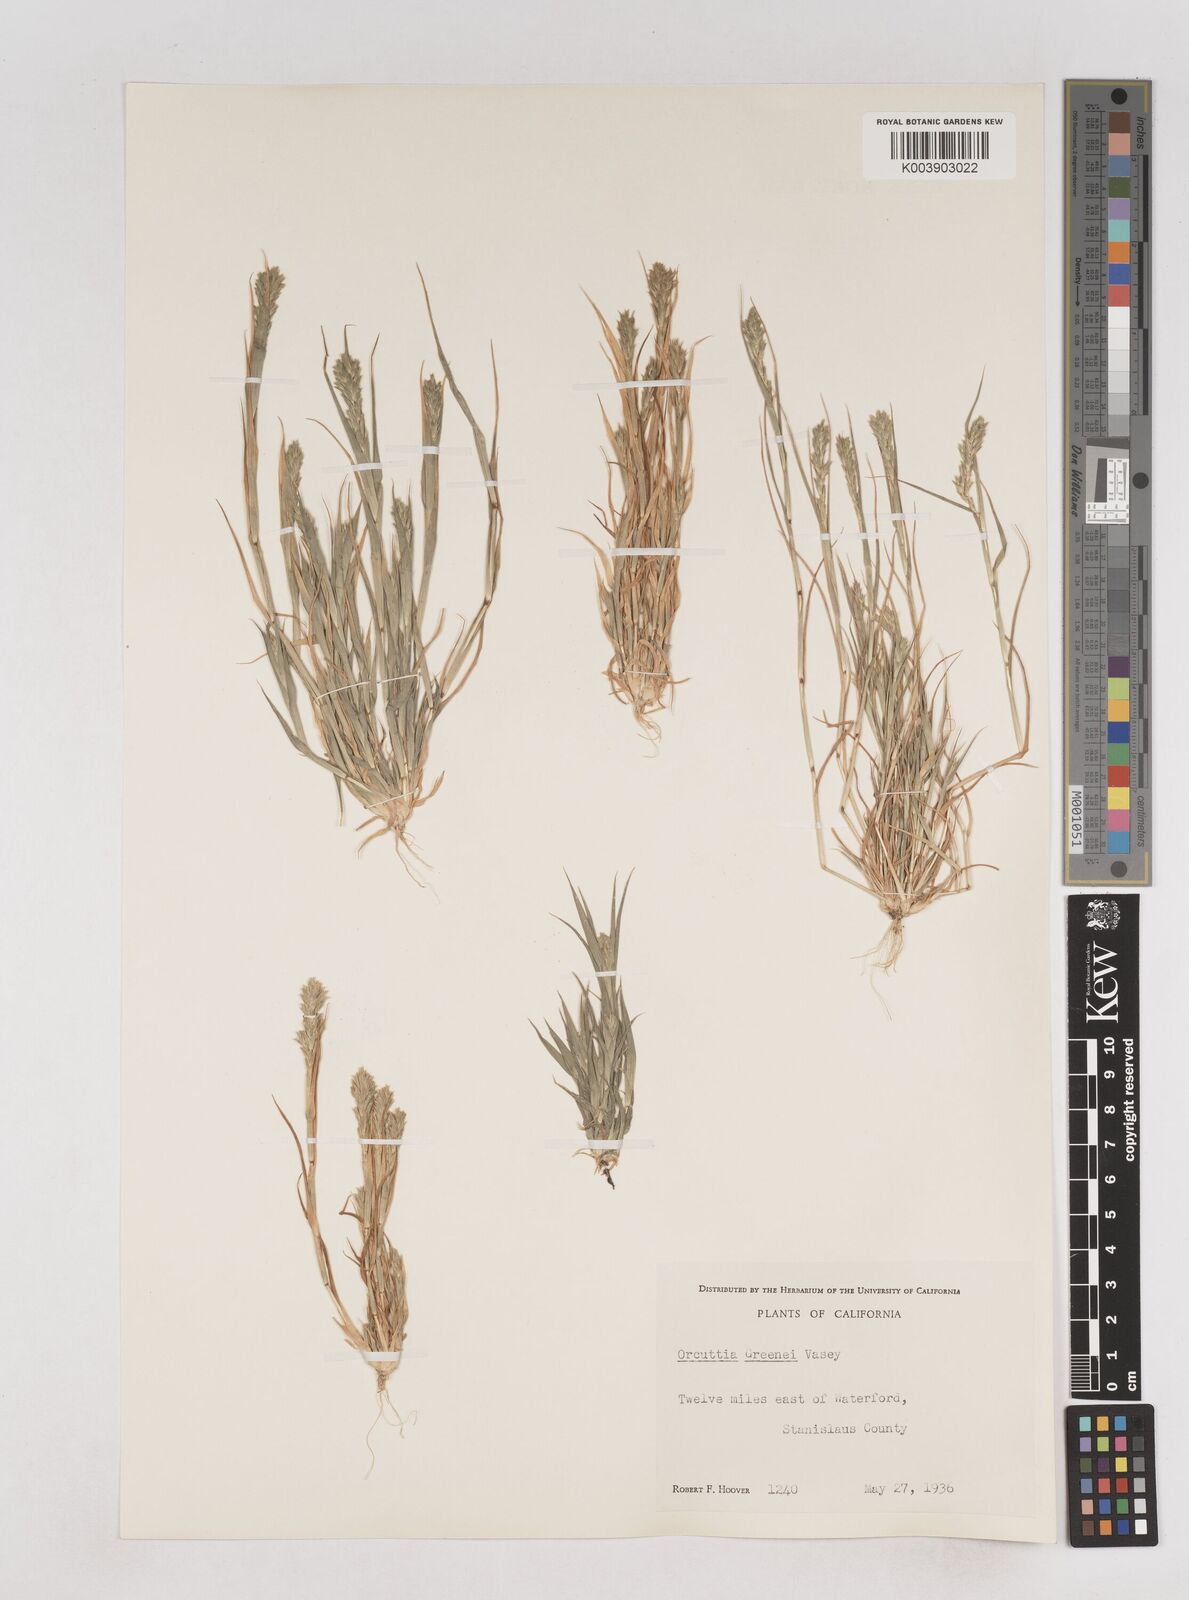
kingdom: Plantae
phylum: Tracheophyta
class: Liliopsida
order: Poales
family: Poaceae
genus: Tuctoria
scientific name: Tuctoria greenei
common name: Awnless spiral grass
